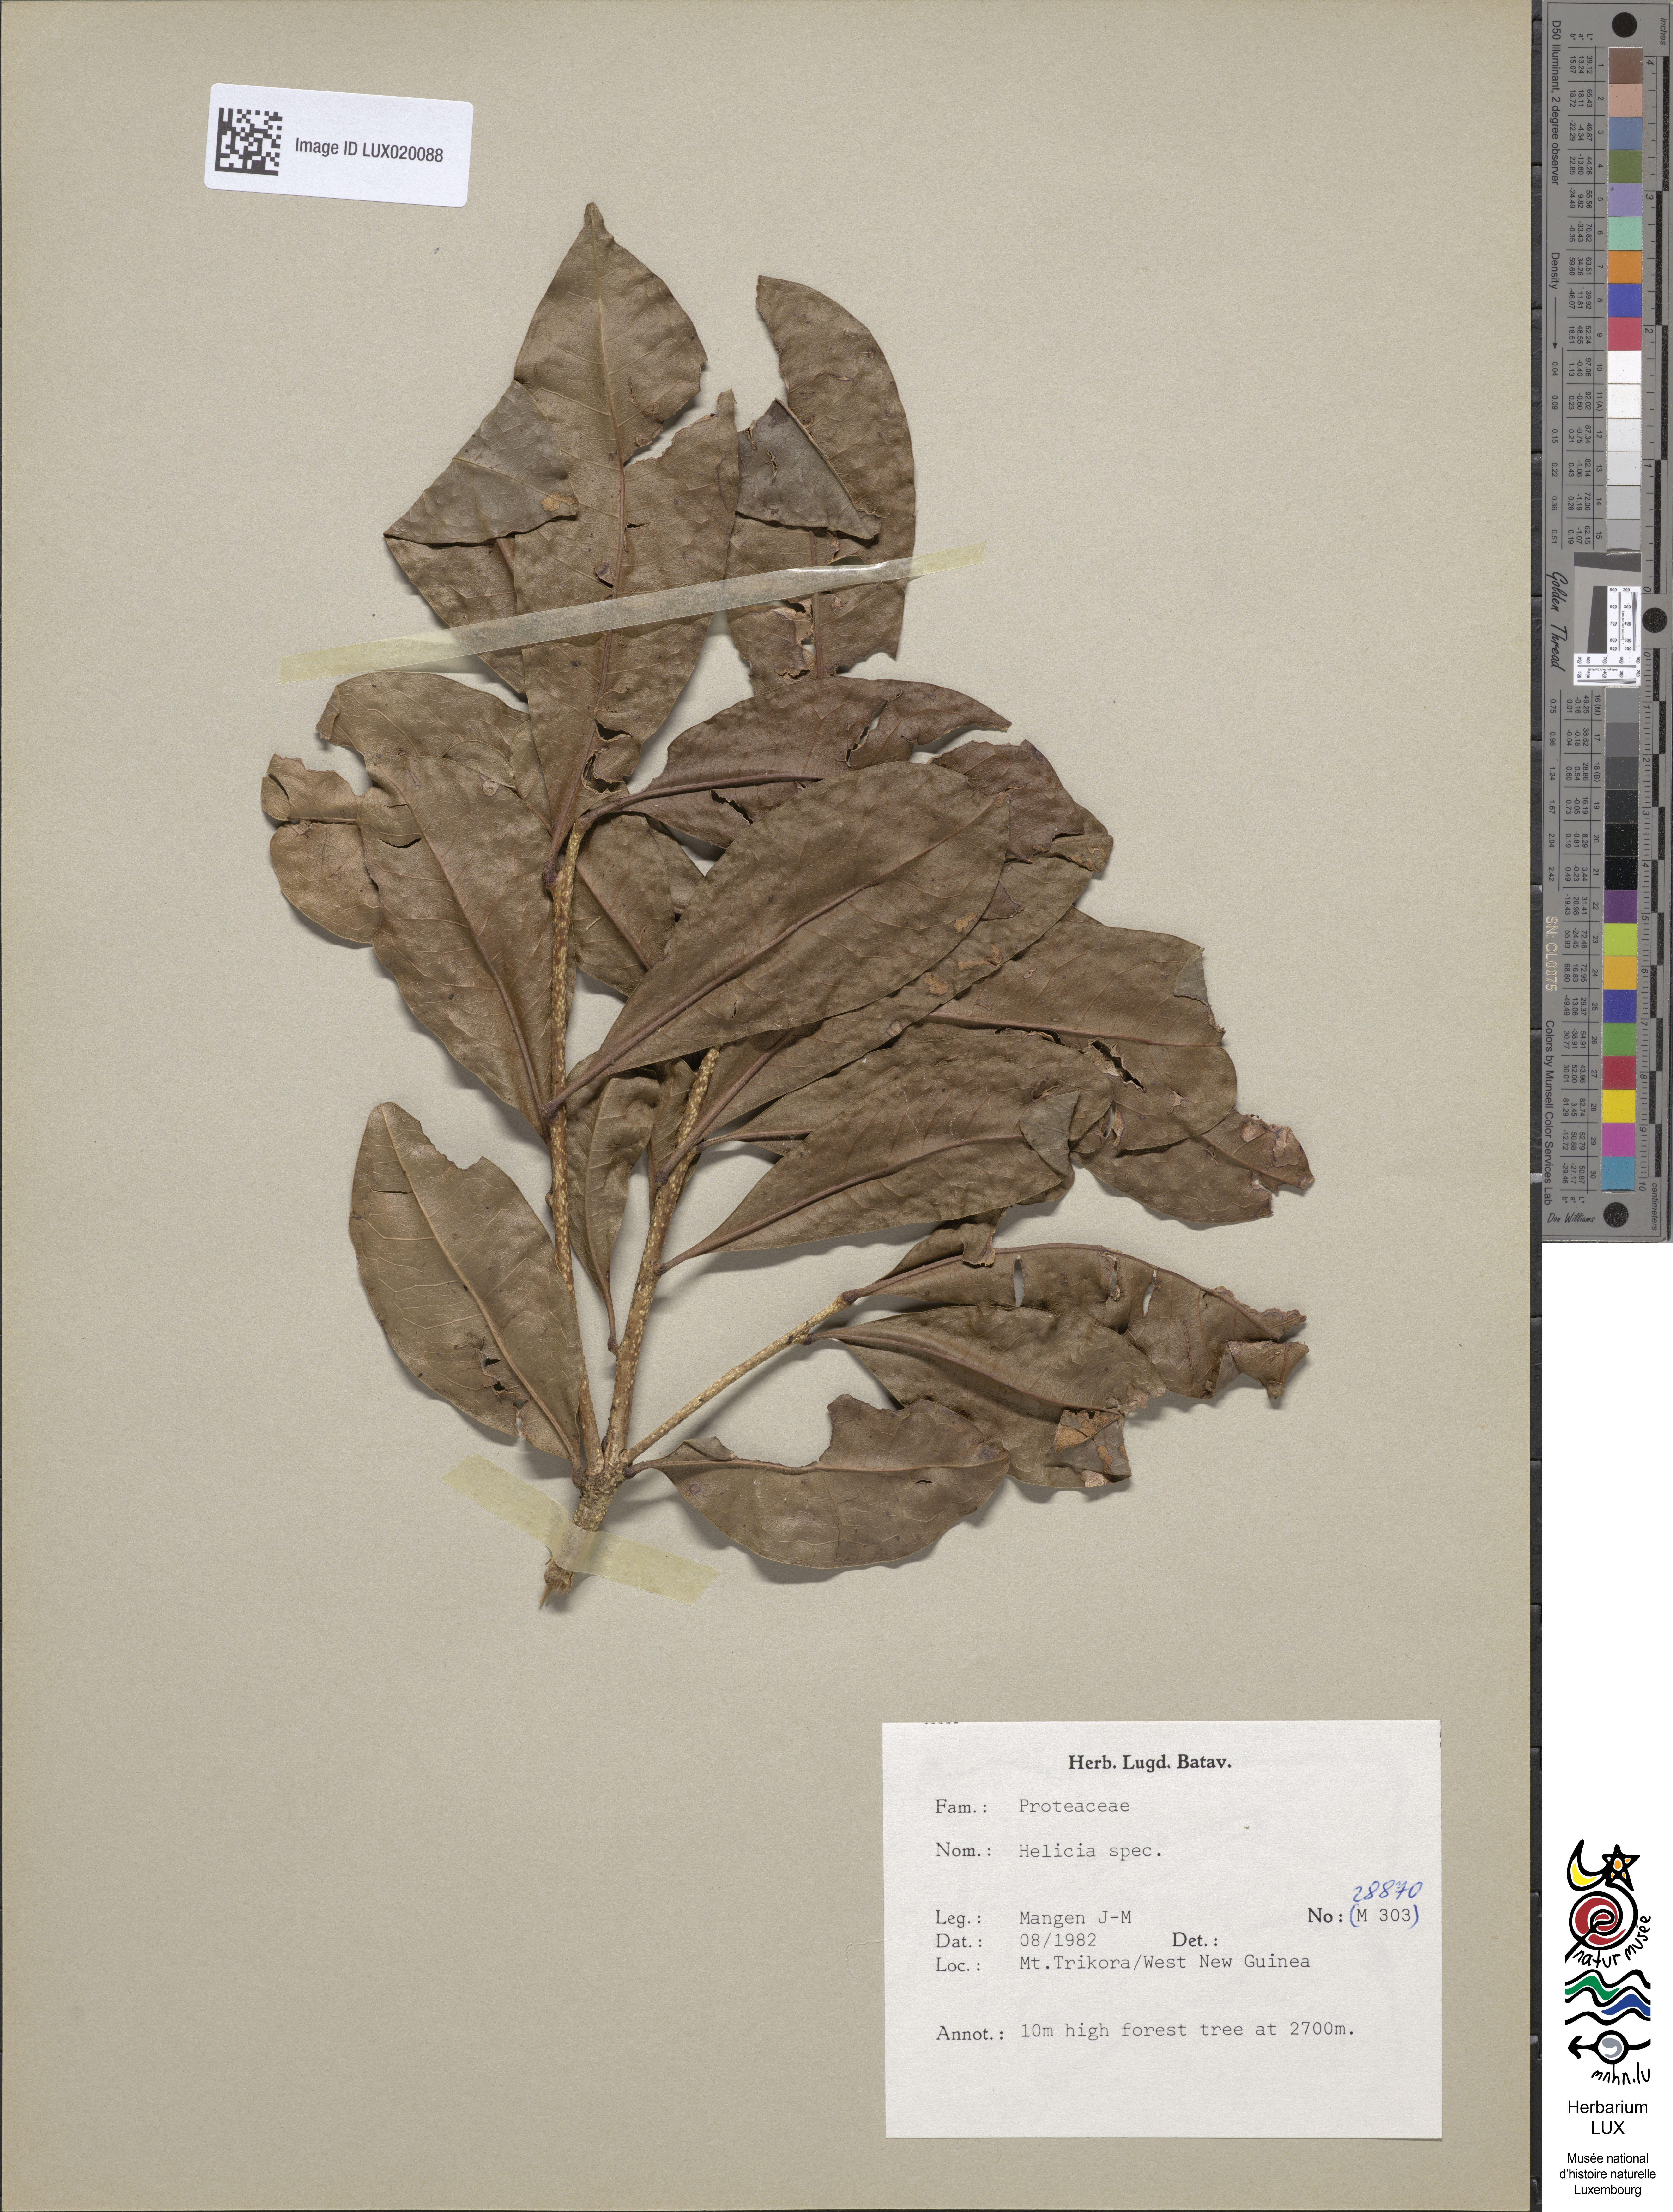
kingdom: Plantae
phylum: Tracheophyta
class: Magnoliopsida
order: Proteales
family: Proteaceae
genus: Helicia
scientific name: Helicia
